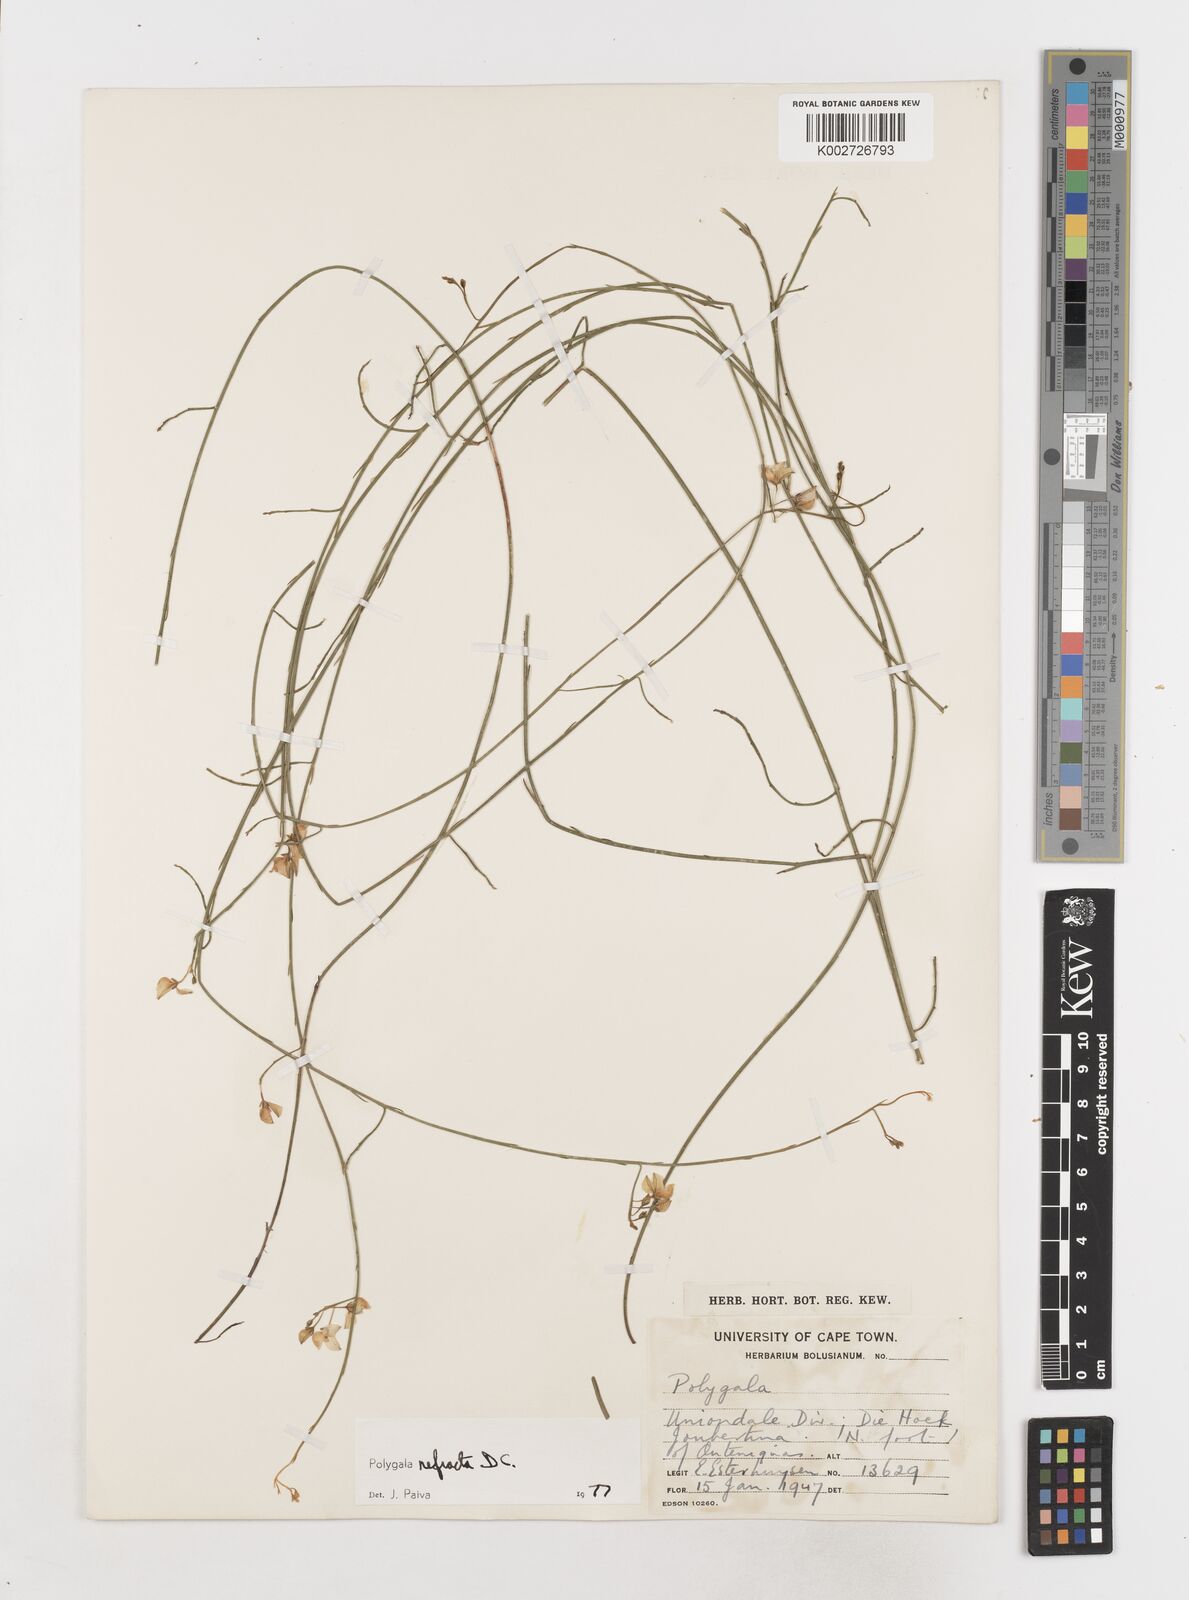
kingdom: Plantae
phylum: Tracheophyta
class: Magnoliopsida
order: Fabales
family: Polygalaceae
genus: Polygala
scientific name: Polygala refracta
